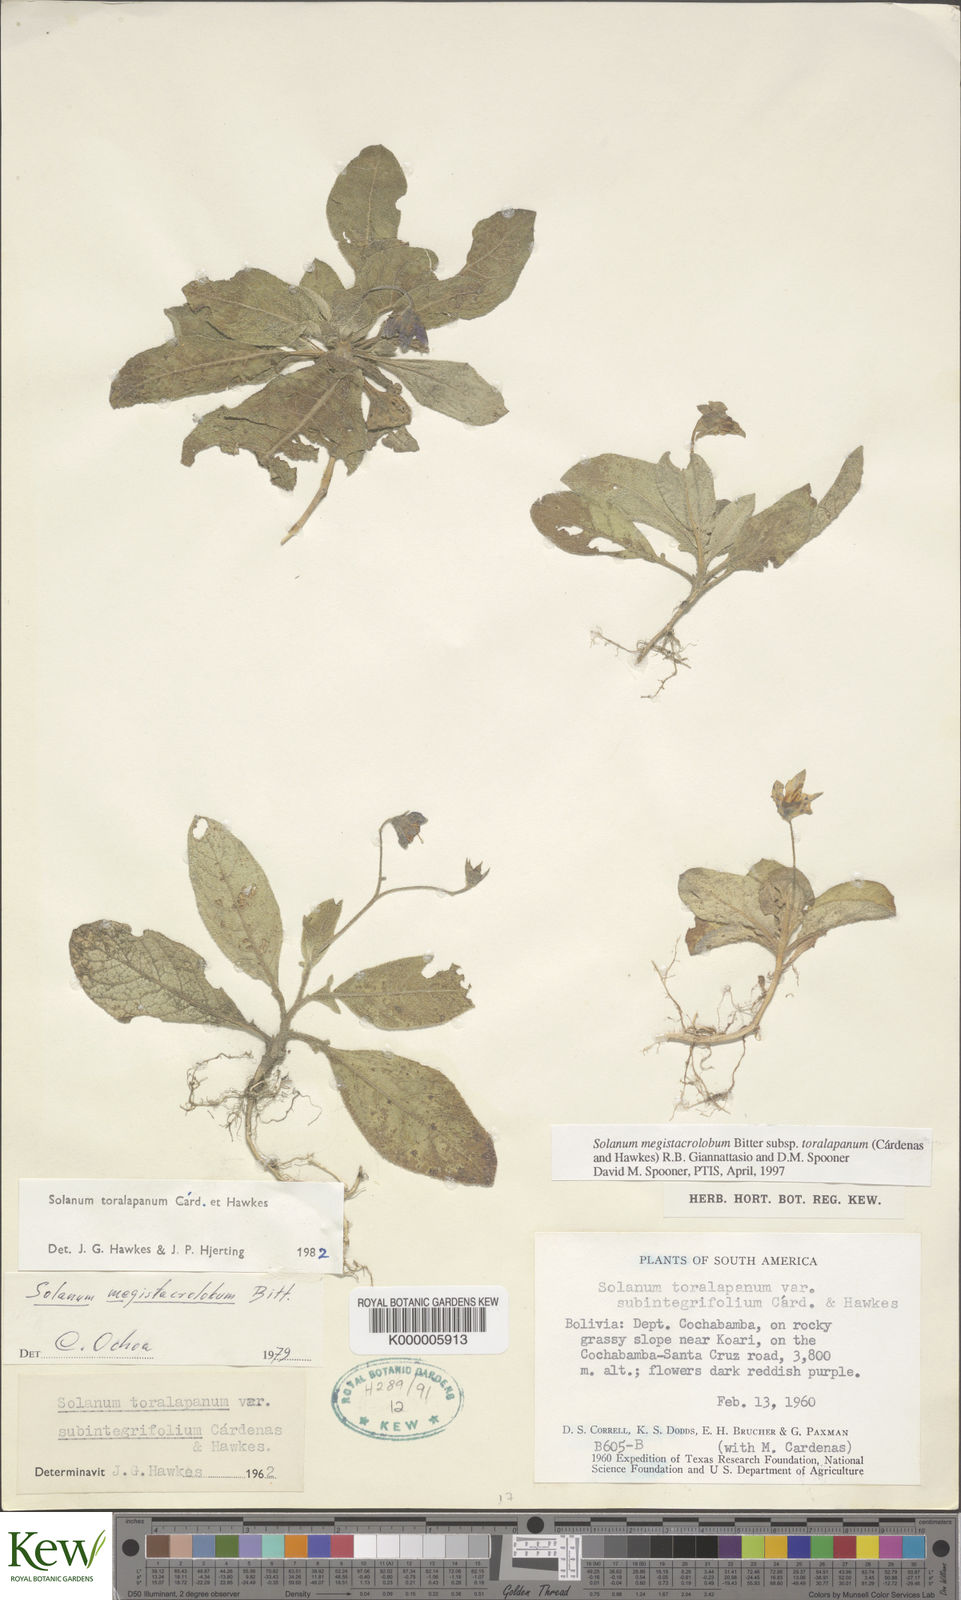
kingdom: Plantae
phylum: Tracheophyta
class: Magnoliopsida
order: Solanales
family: Solanaceae
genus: Solanum
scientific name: Solanum boliviense
